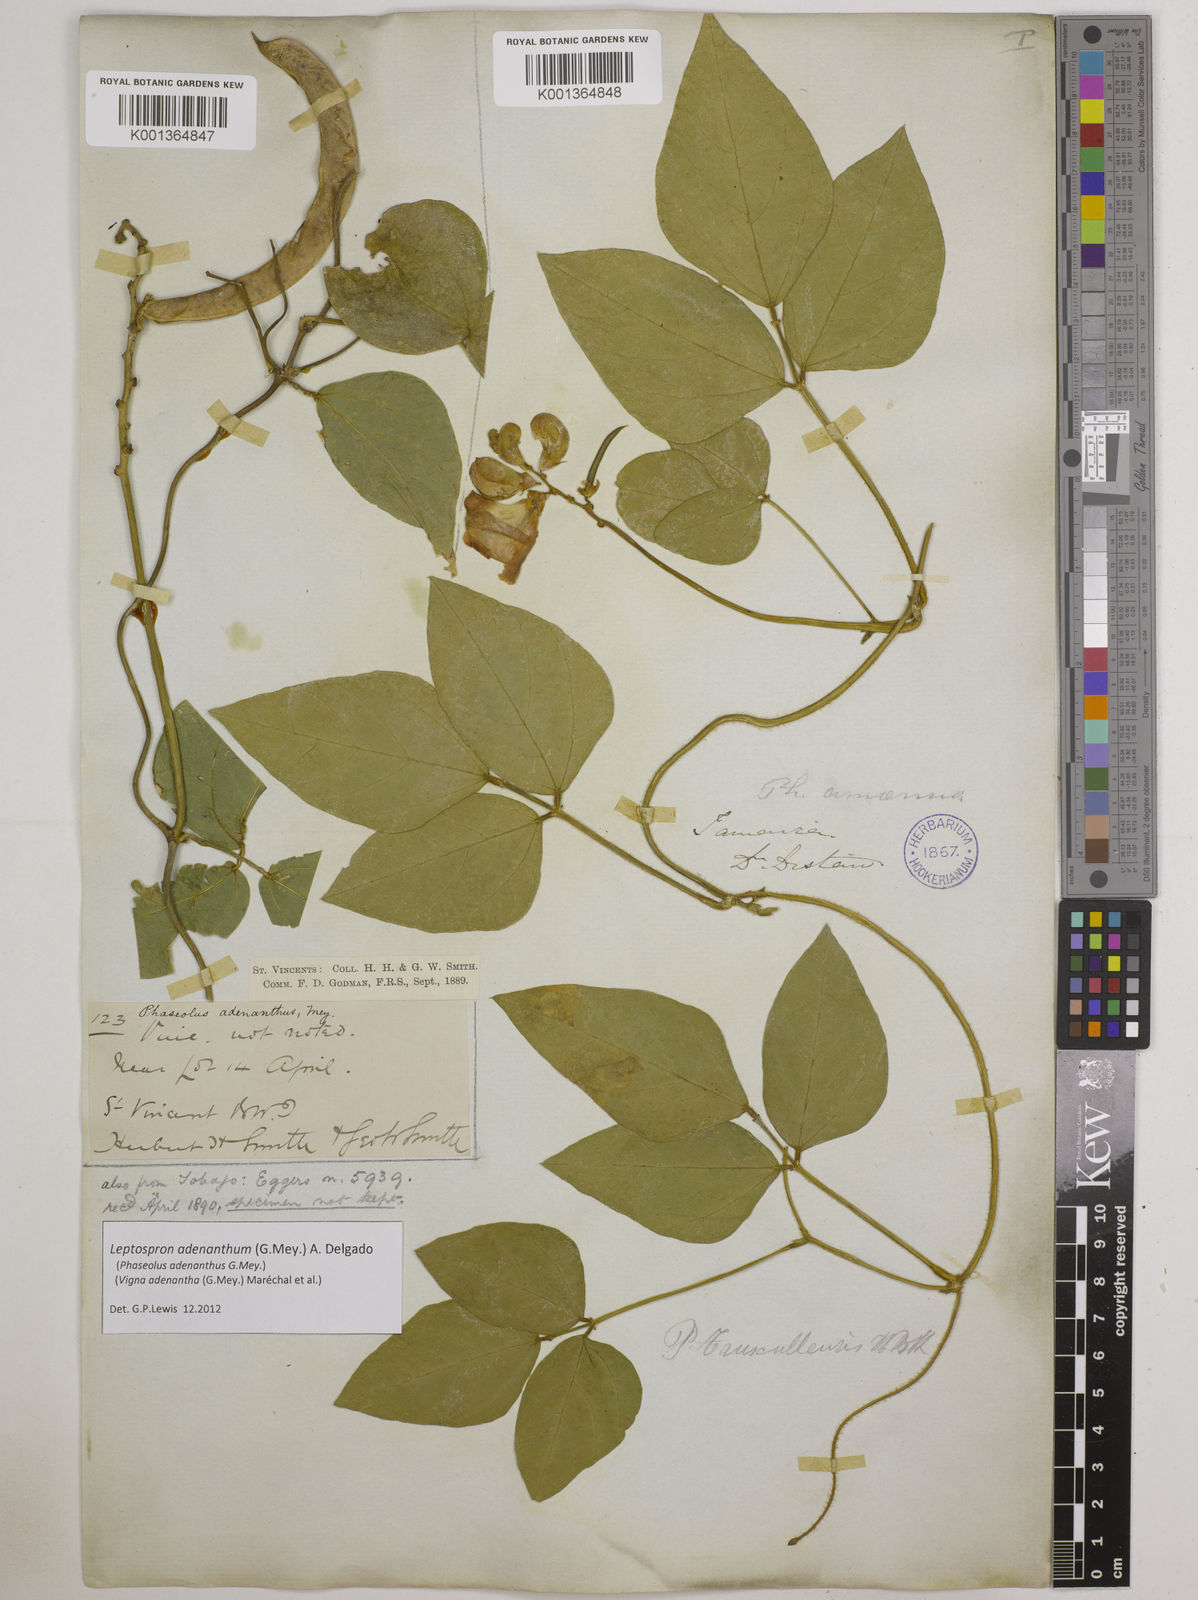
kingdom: Plantae
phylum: Tracheophyta
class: Magnoliopsida
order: Fabales
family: Fabaceae
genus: Leptospron
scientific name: Leptospron adenanthum
